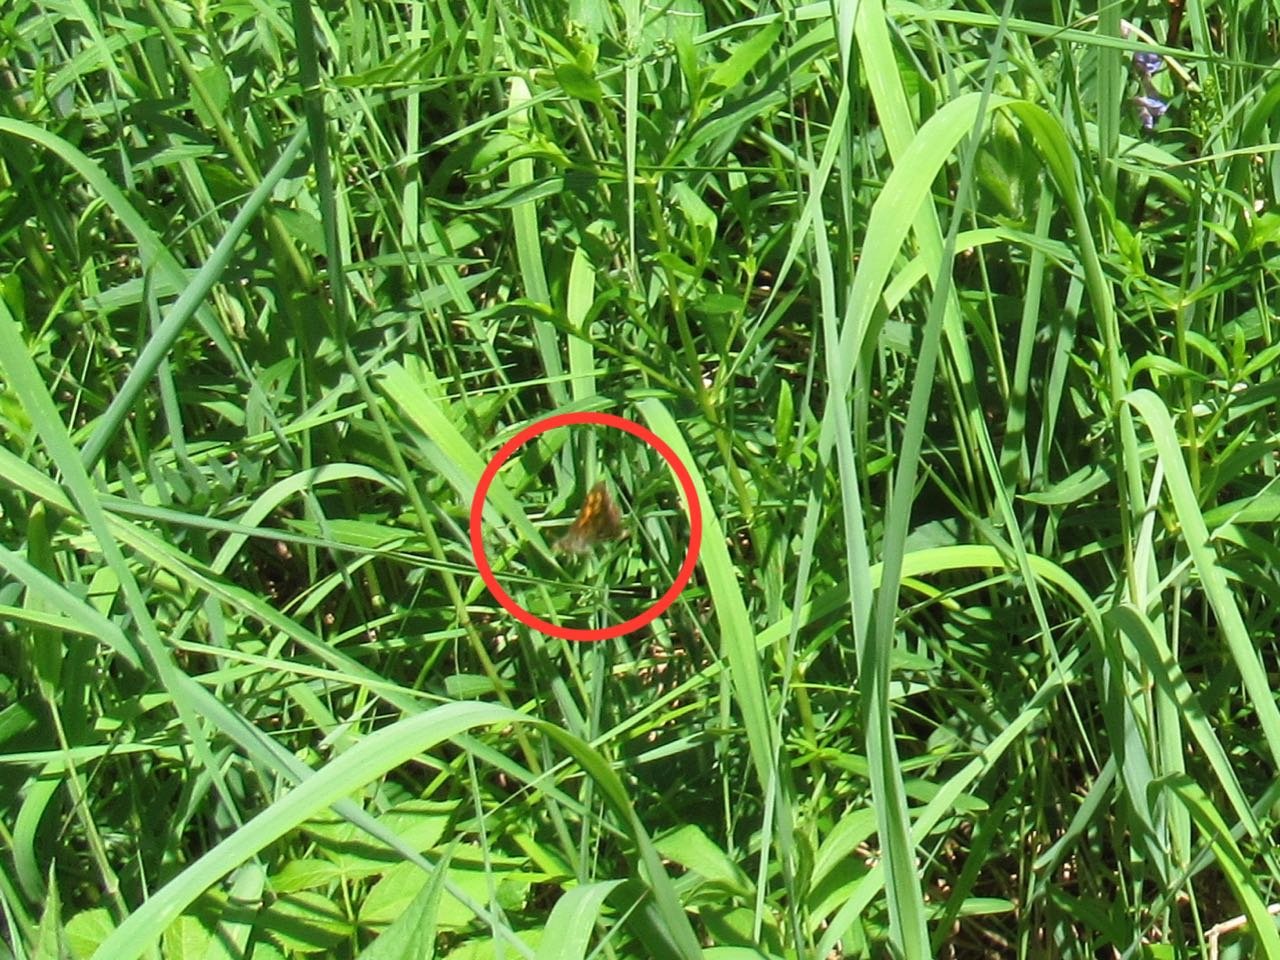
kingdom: Animalia
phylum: Arthropoda
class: Insecta
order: Lepidoptera
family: Hesperiidae
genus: Carterocephalus
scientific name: Carterocephalus palaemon
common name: Chequered Skipper
